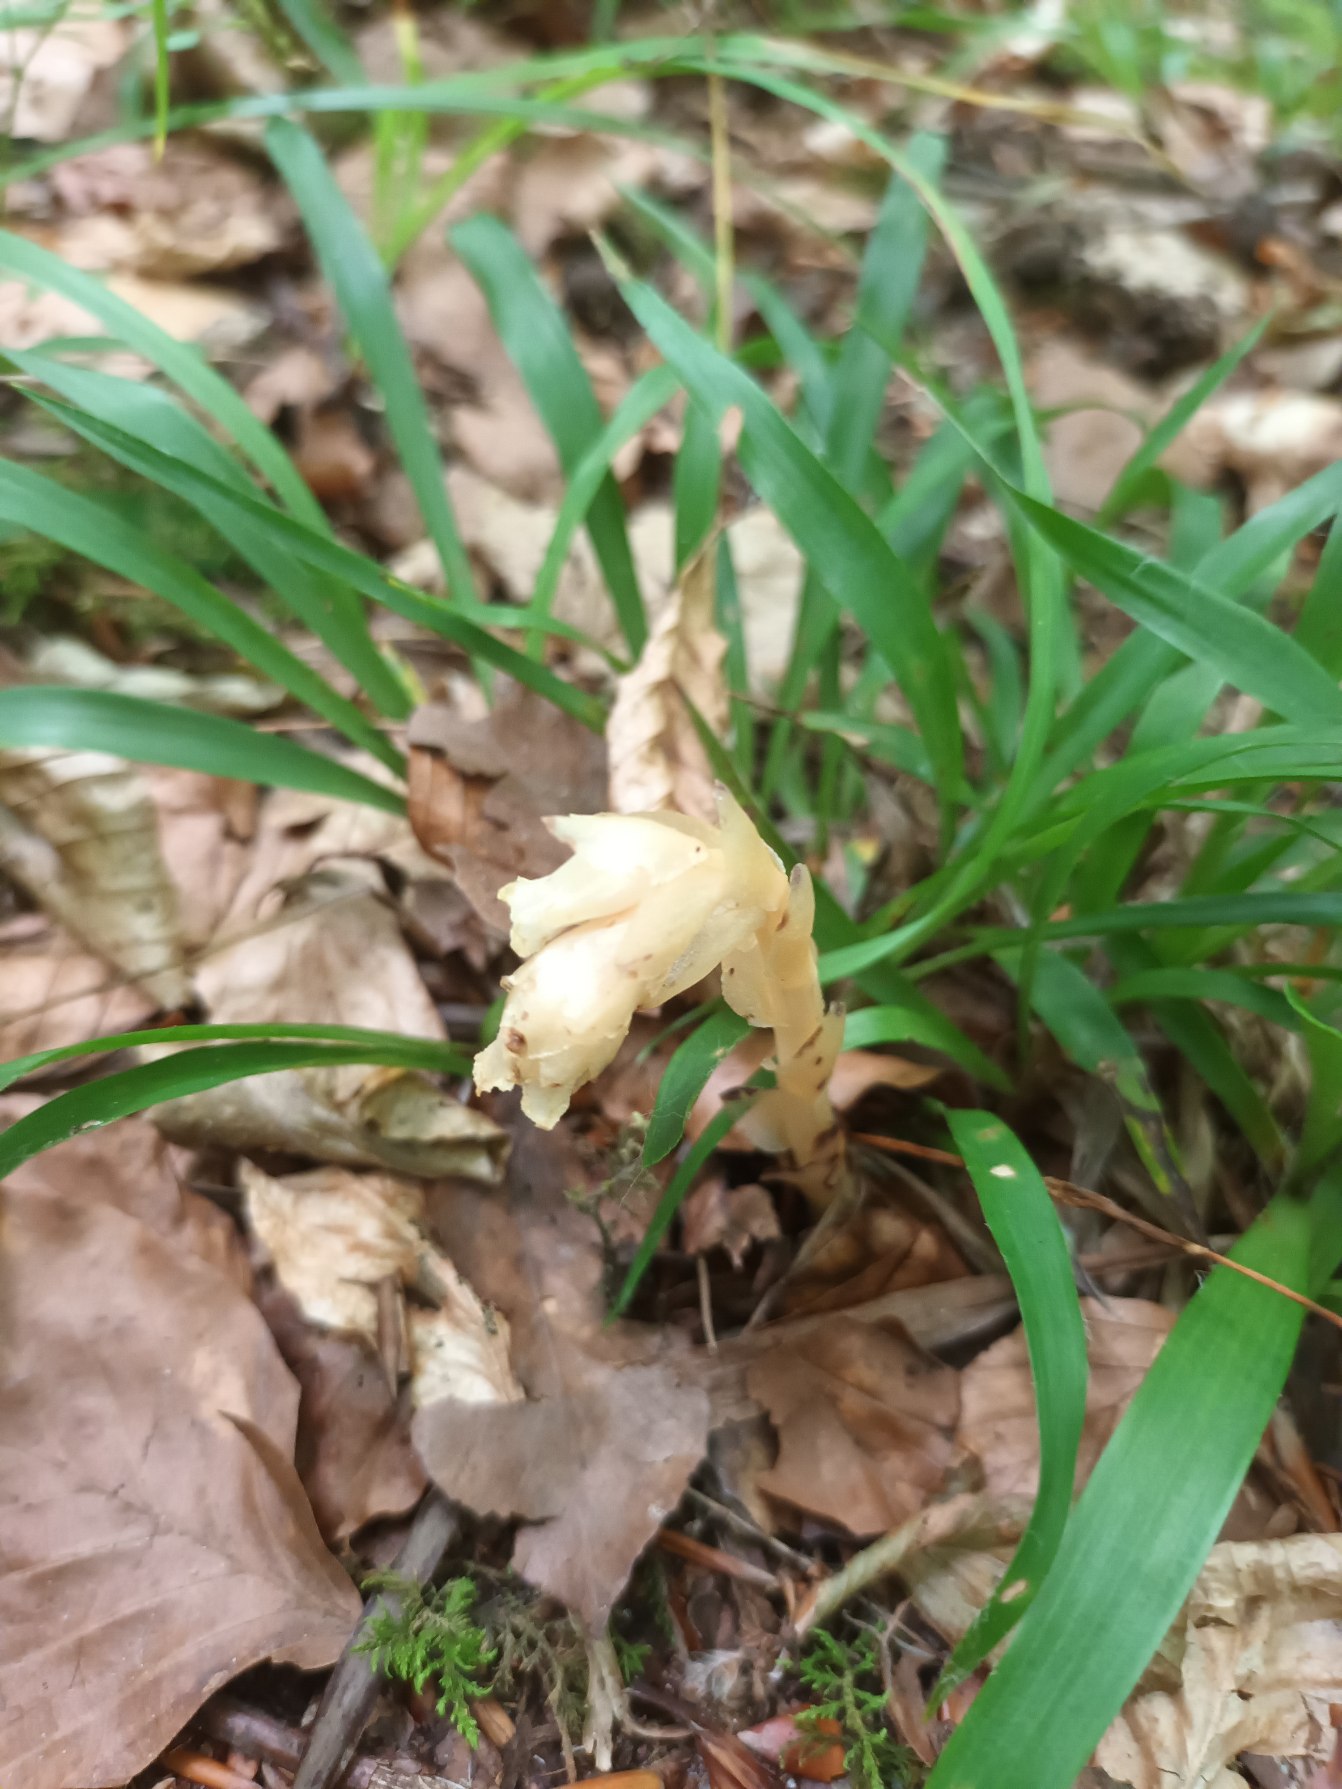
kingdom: Plantae
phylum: Tracheophyta
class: Magnoliopsida
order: Ericales
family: Ericaceae
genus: Hypopitys
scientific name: Hypopitys hypophegea
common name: Glat snylterod
